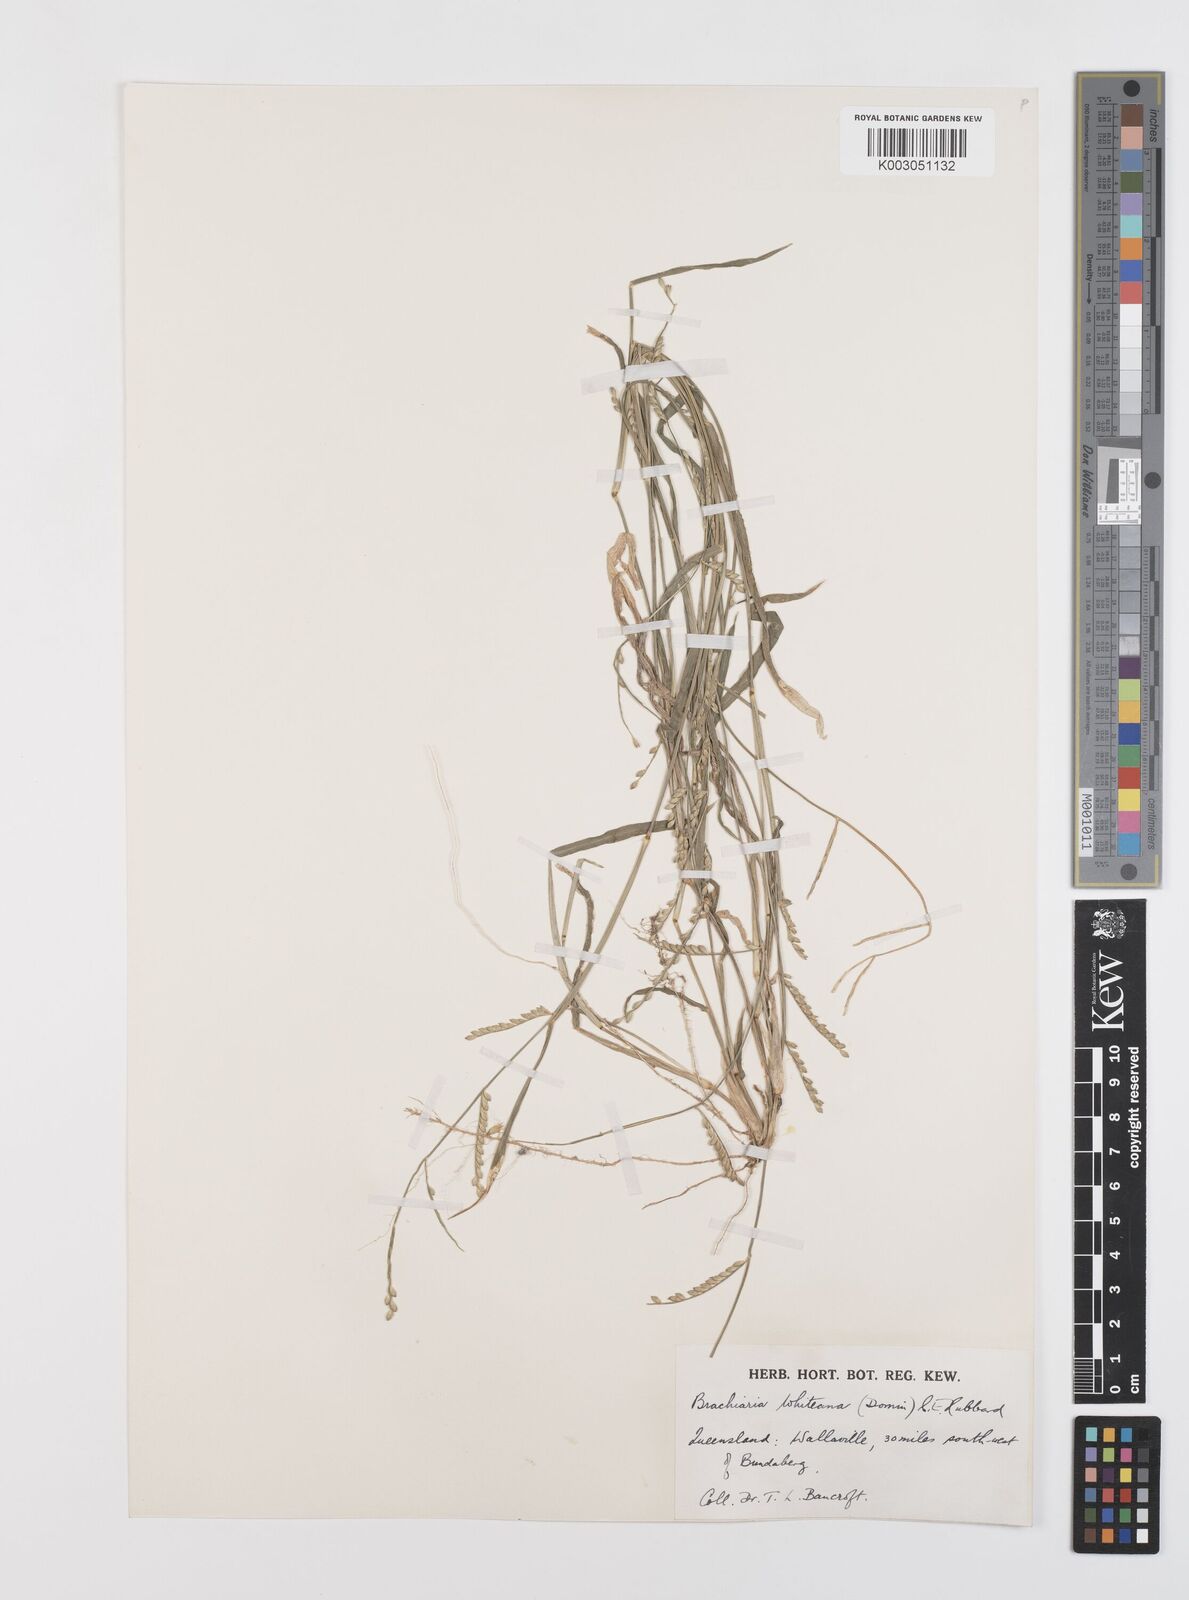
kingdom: Plantae
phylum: Tracheophyta
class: Liliopsida
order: Poales
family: Poaceae
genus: Urochloa
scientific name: Urochloa whiteana
